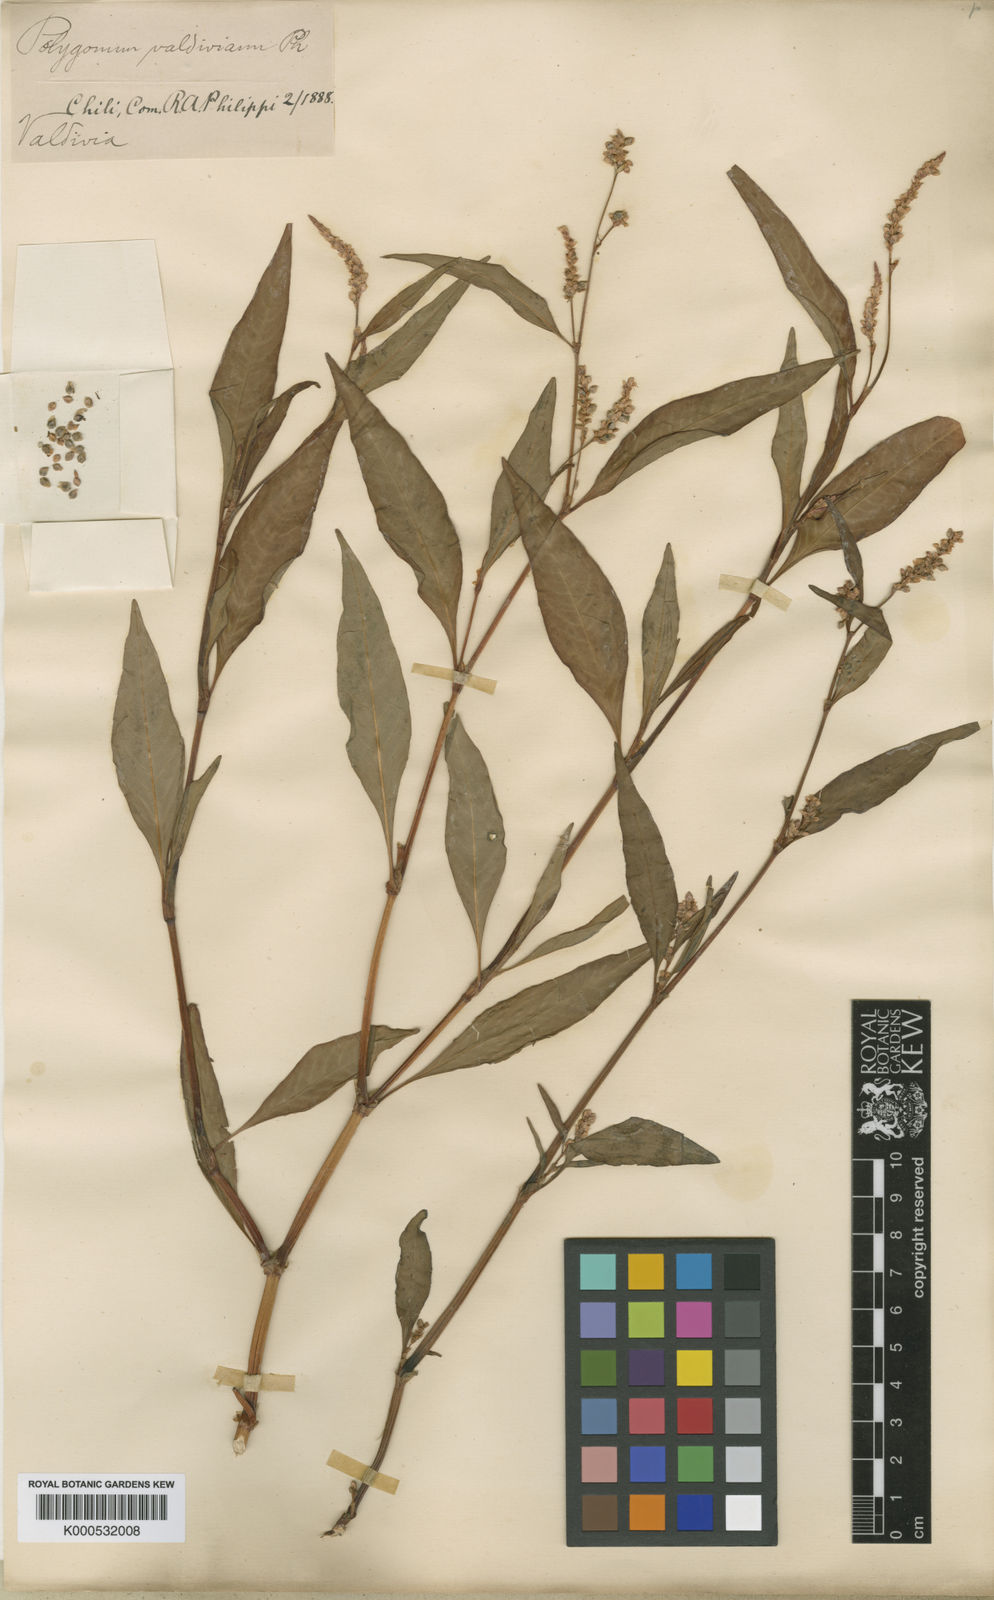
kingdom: Plantae
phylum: Tracheophyta
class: Magnoliopsida
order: Caryophyllales
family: Polygonaceae
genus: Persicaria
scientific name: Persicaria
